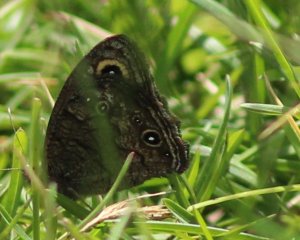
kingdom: Animalia
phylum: Arthropoda
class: Insecta
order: Lepidoptera
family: Nymphalidae
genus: Cercyonis
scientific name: Cercyonis sthenele
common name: Great Basin Wood-Nymph
